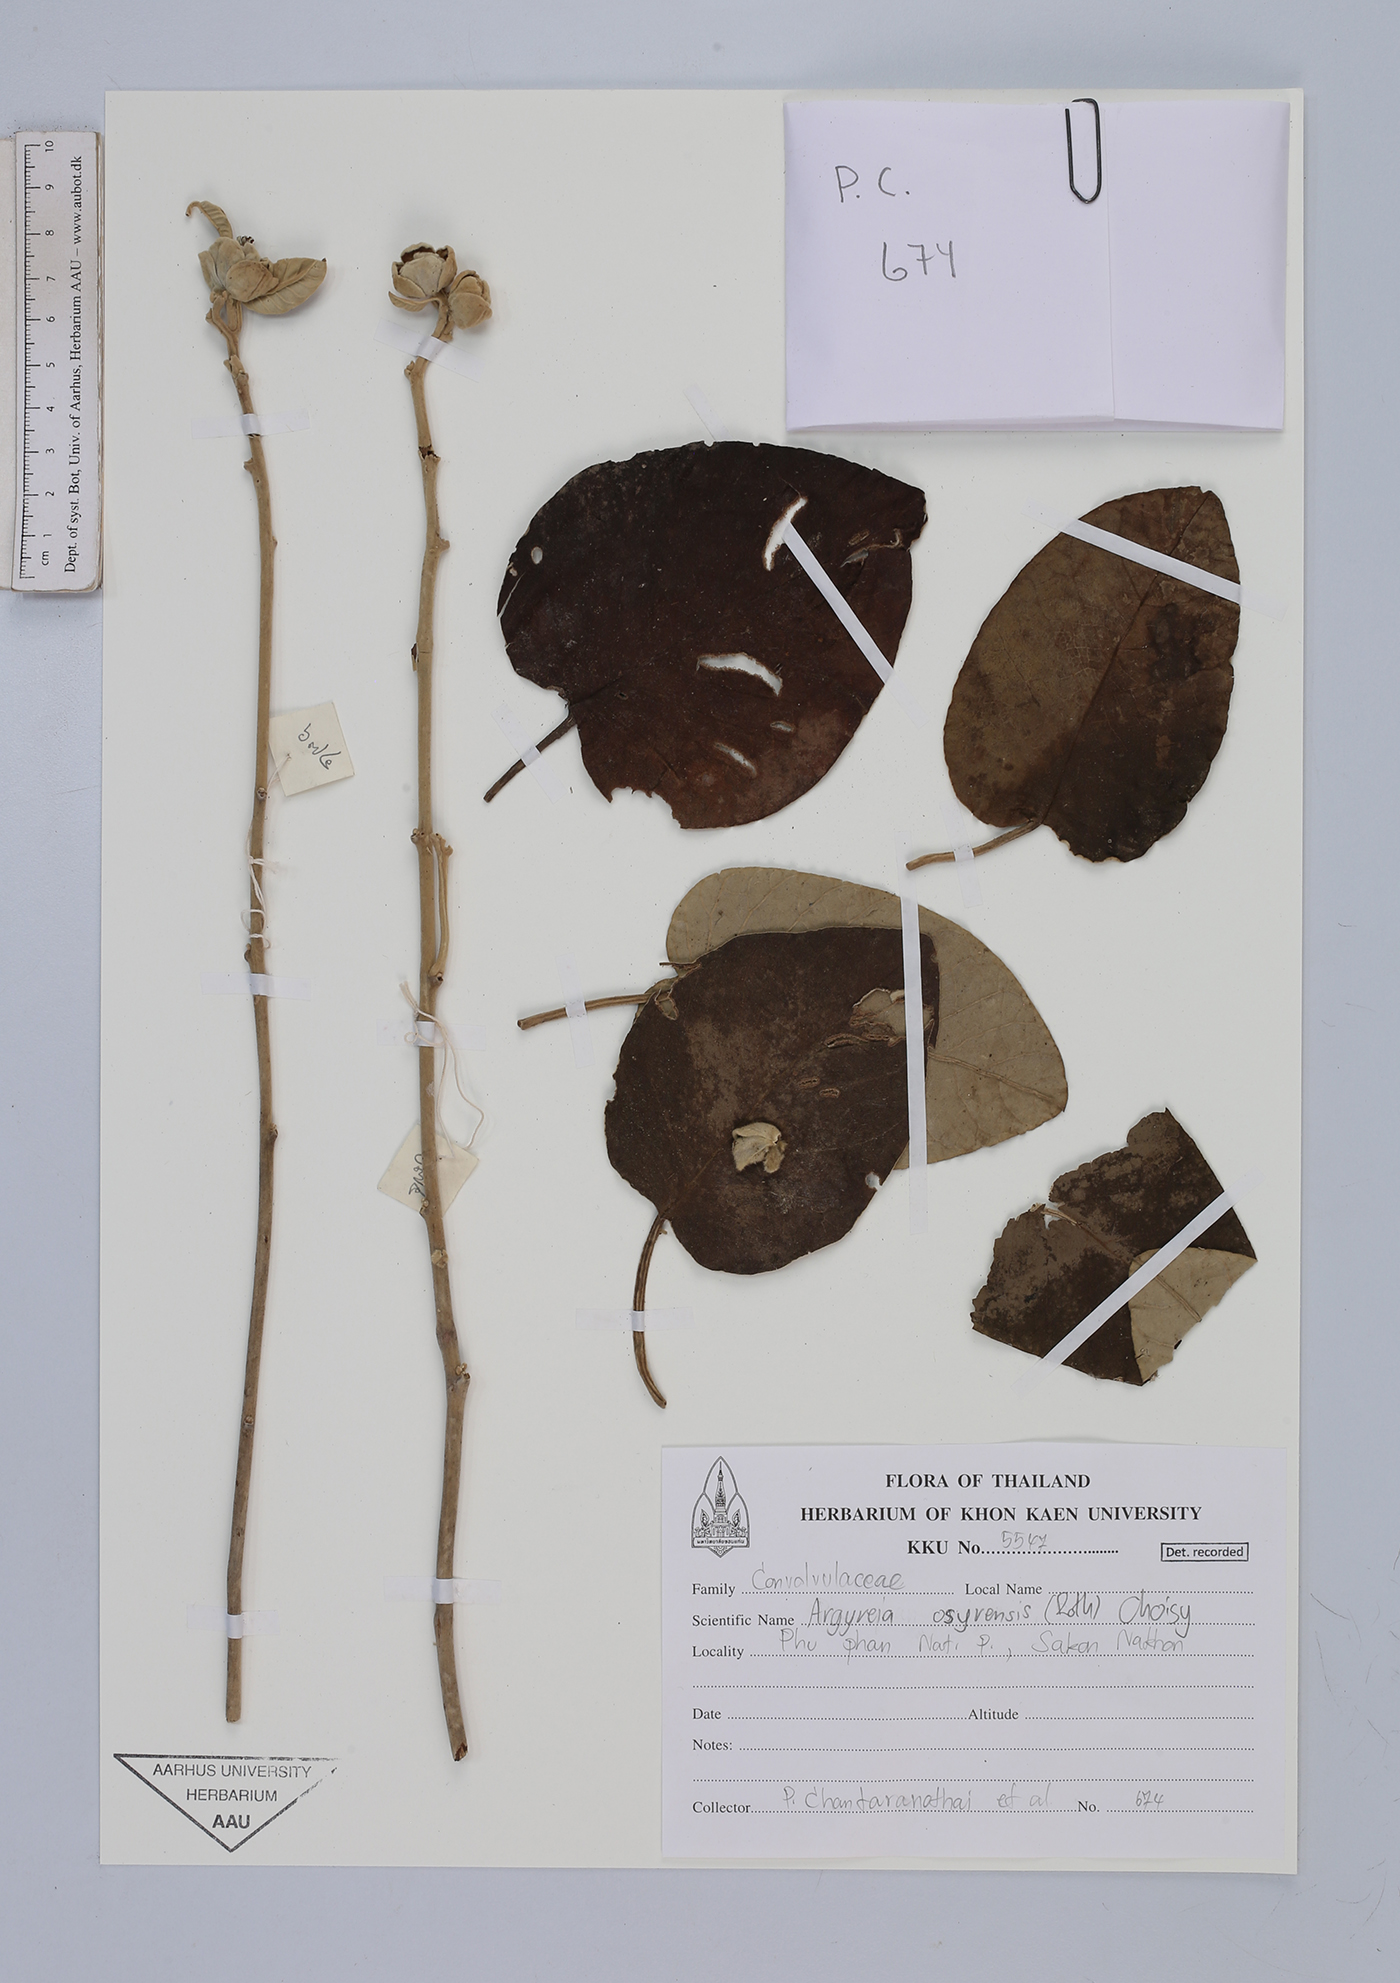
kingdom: Plantae
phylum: Tracheophyta
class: Magnoliopsida
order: Solanales
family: Convolvulaceae
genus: Argyreia
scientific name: Argyreia osyrensis
